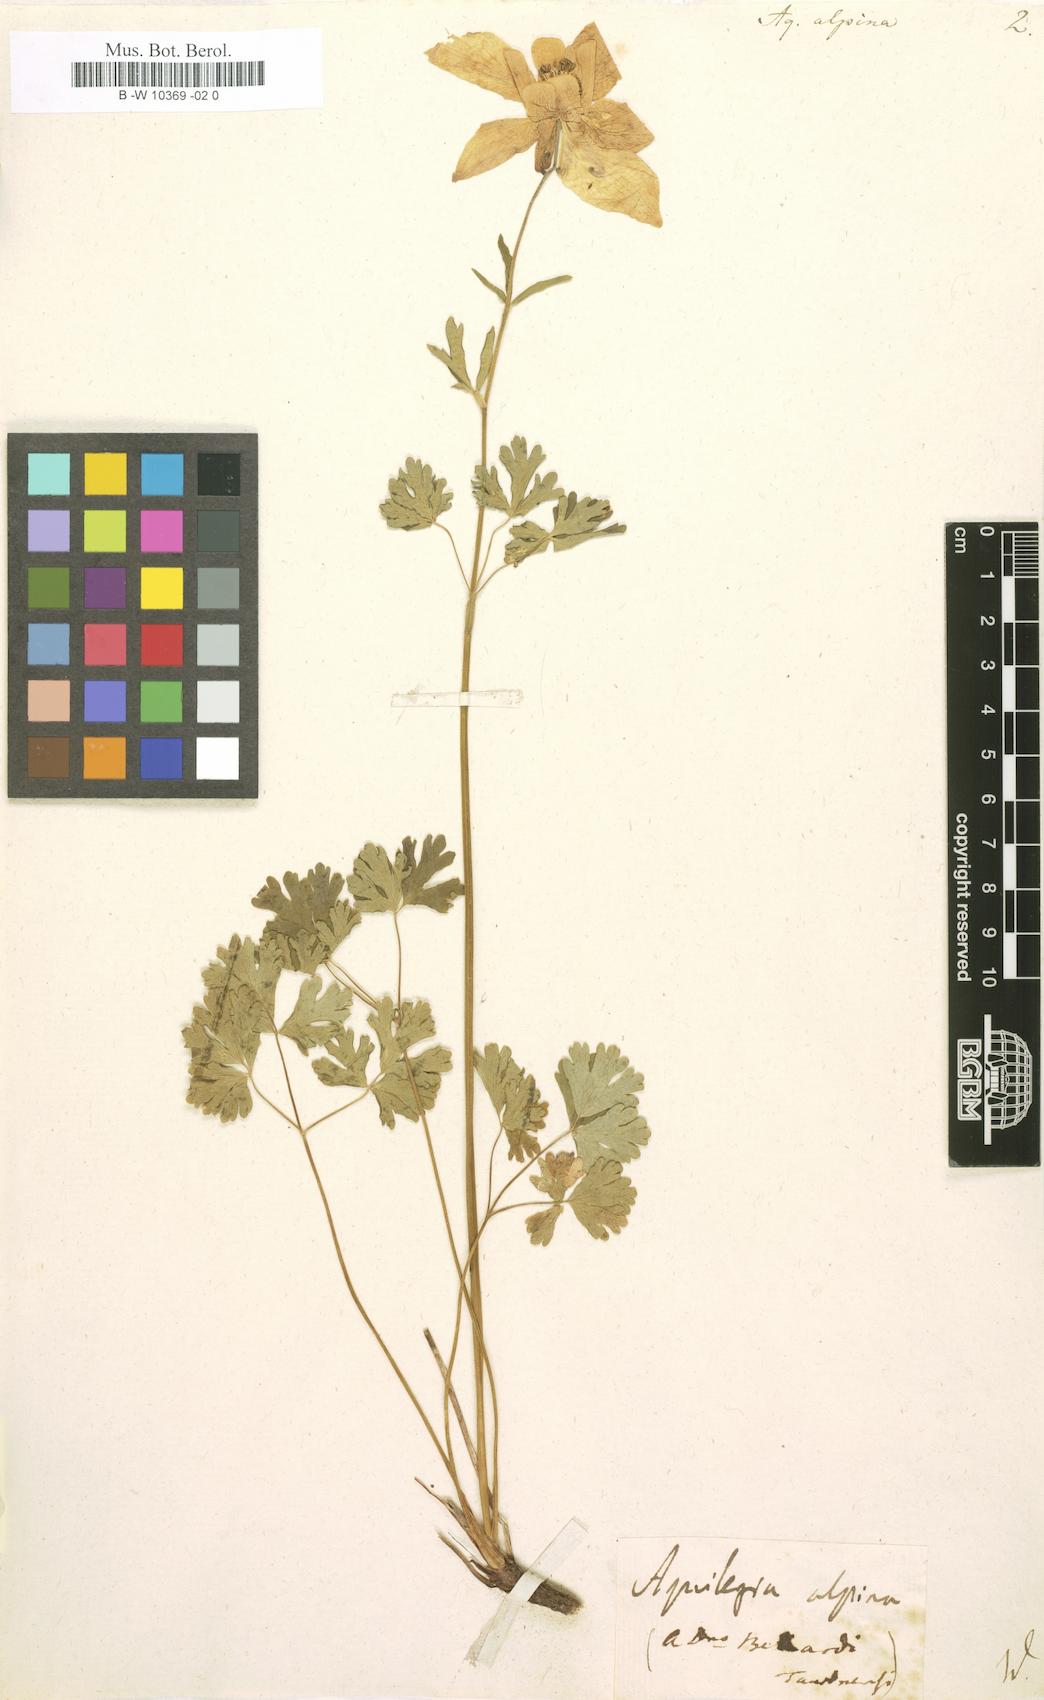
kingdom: Plantae
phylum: Tracheophyta
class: Magnoliopsida
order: Ranunculales
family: Ranunculaceae
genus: Aquilegia
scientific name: Aquilegia alpina
